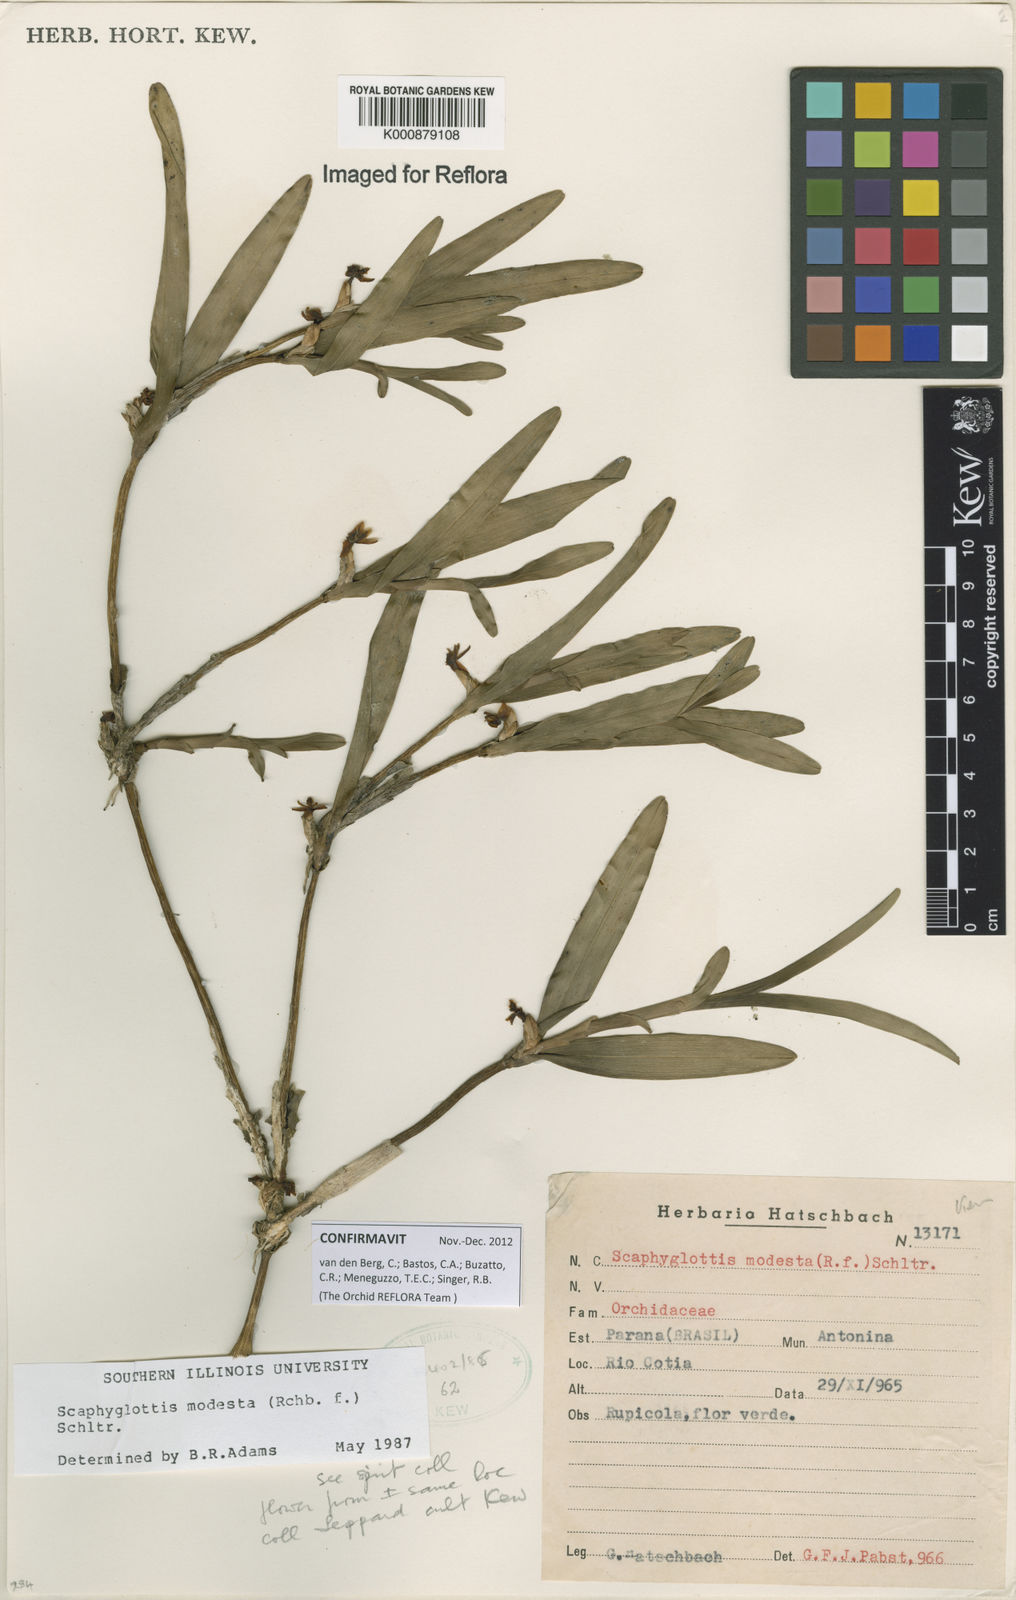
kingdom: Plantae
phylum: Tracheophyta
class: Liliopsida
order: Asparagales
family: Orchidaceae
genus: Scaphyglottis
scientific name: Scaphyglottis modesta
